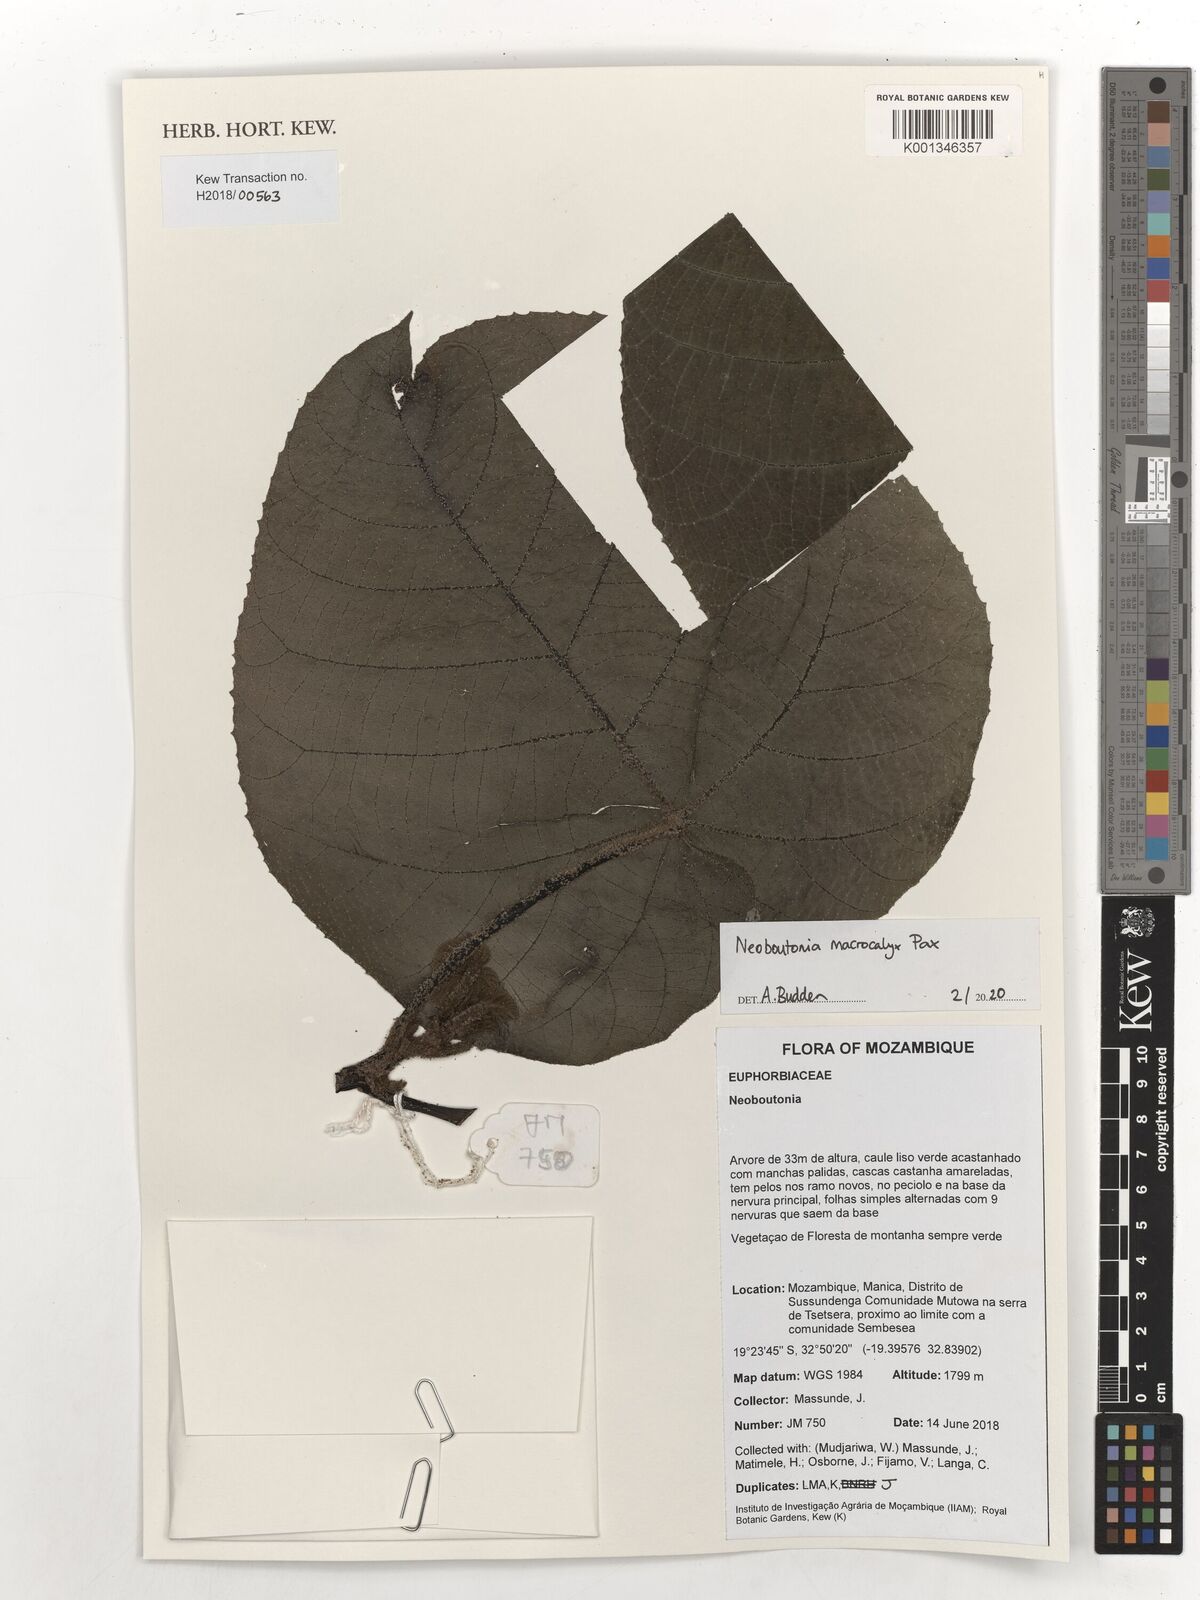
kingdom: Plantae
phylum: Tracheophyta
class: Magnoliopsida
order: Malpighiales
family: Euphorbiaceae
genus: Neoboutonia
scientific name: Neoboutonia macrocalyx
